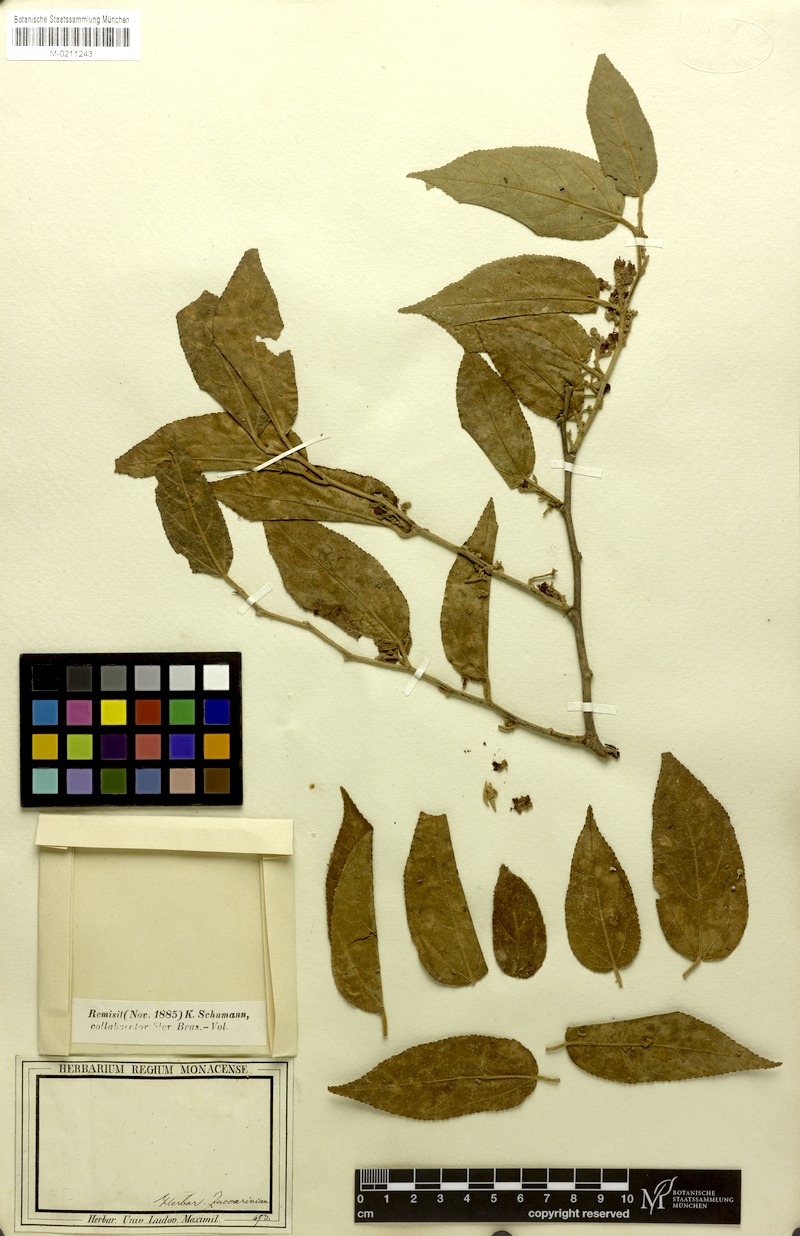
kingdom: Plantae
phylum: Tracheophyta
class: Magnoliopsida
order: Malvales
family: Malvaceae
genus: Guazuma
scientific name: Guazuma ulmifolia
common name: Bastard-cedar
